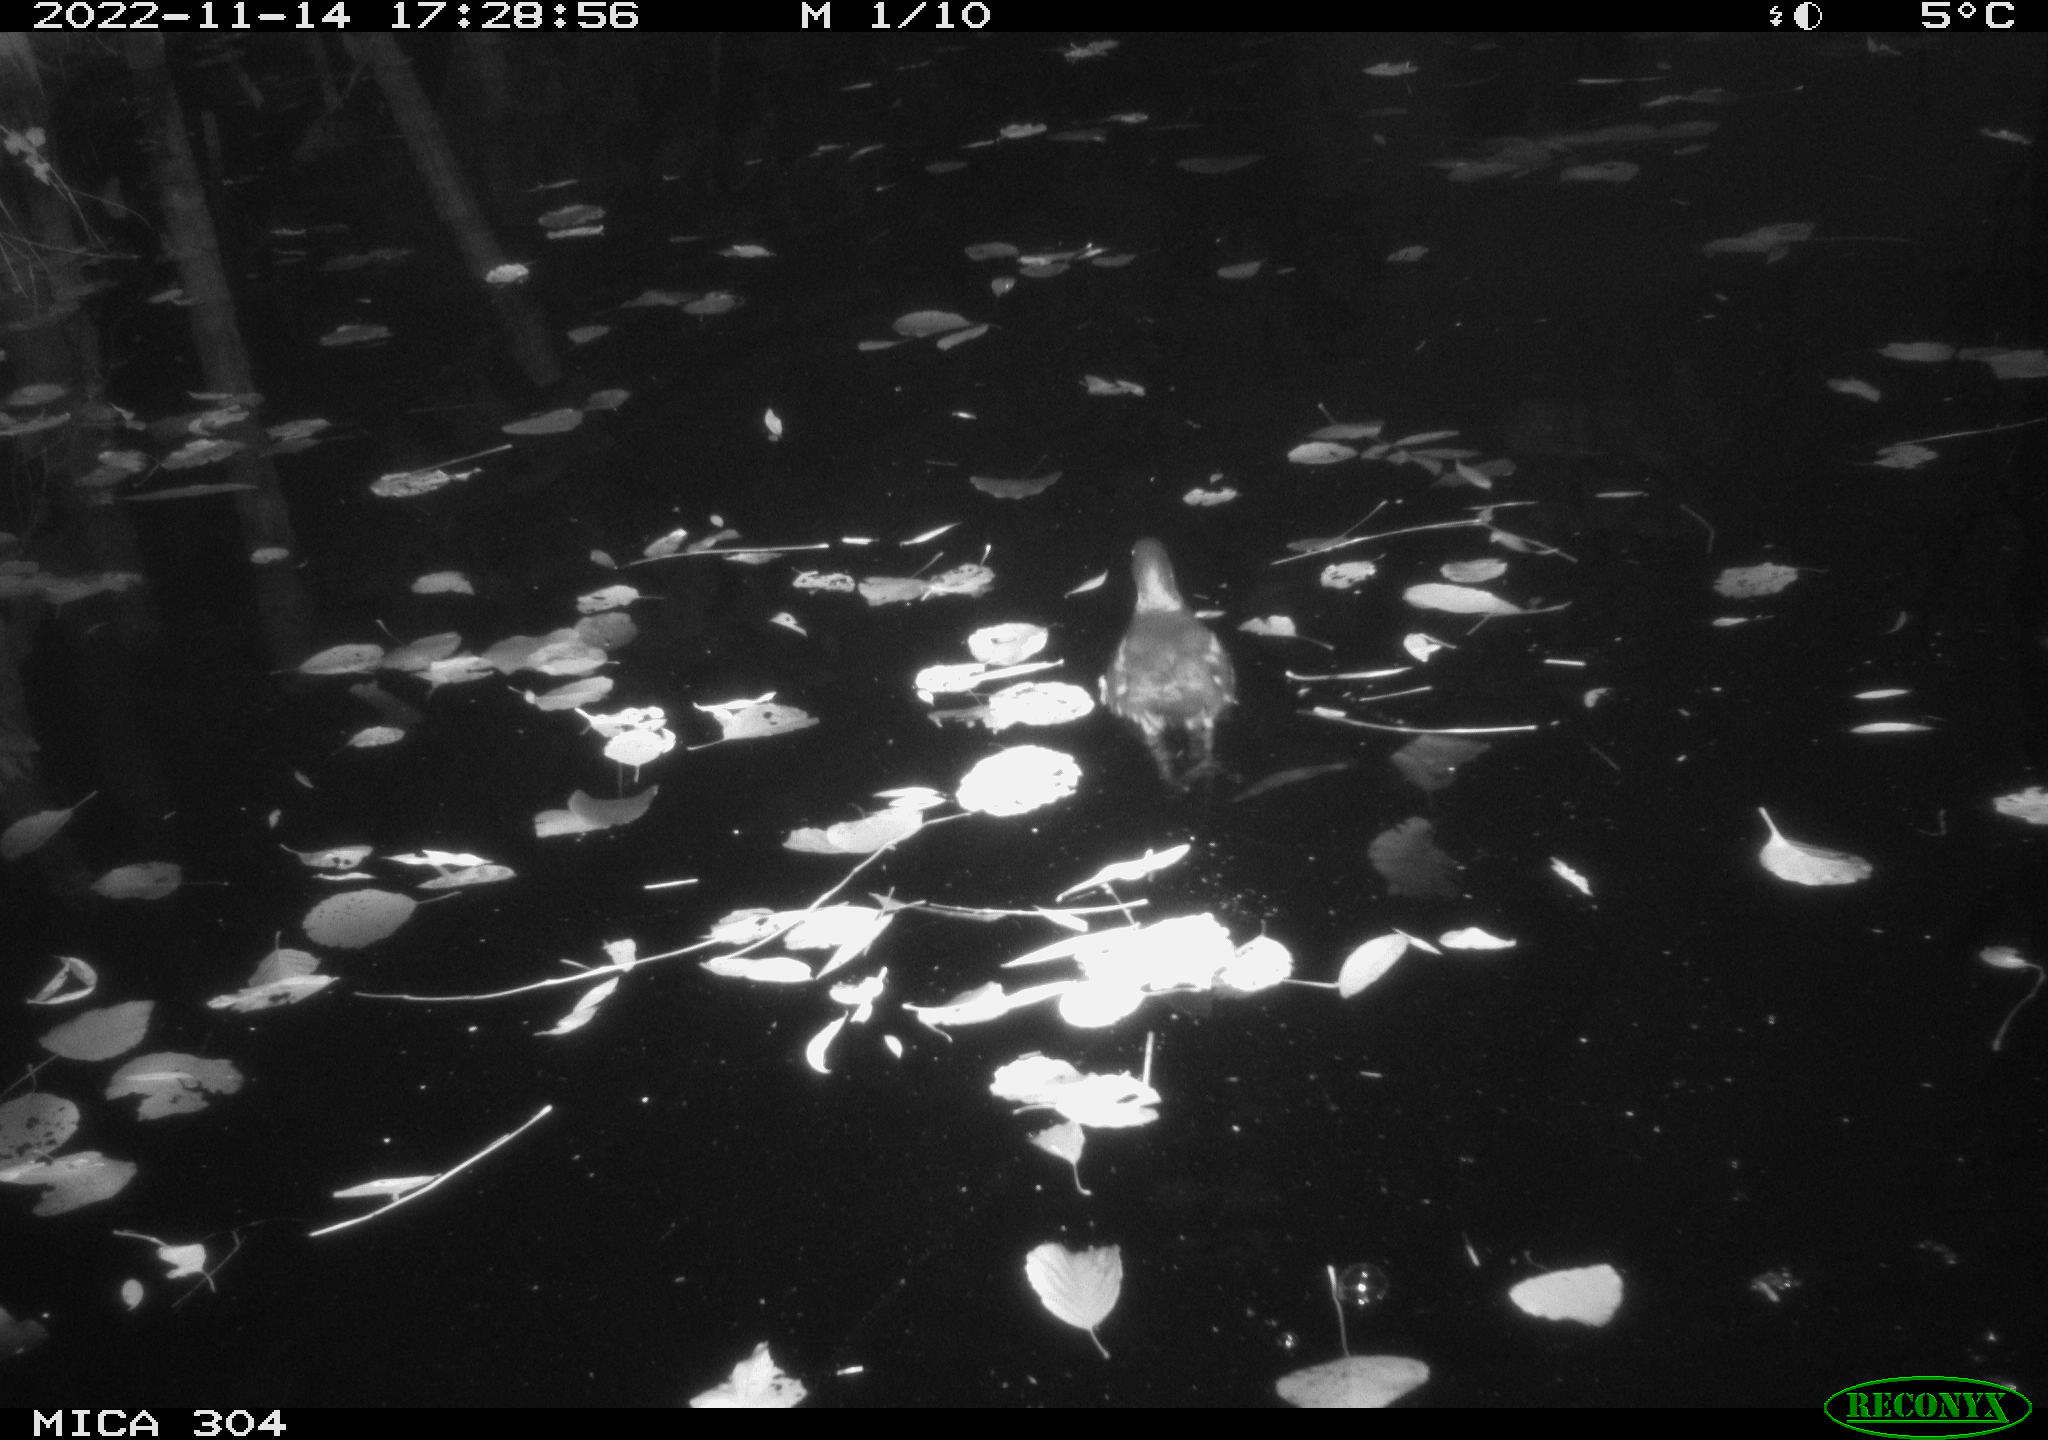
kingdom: Animalia
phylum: Chordata
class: Aves
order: Gruiformes
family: Rallidae
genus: Gallinula
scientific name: Gallinula chloropus
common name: Common moorhen
